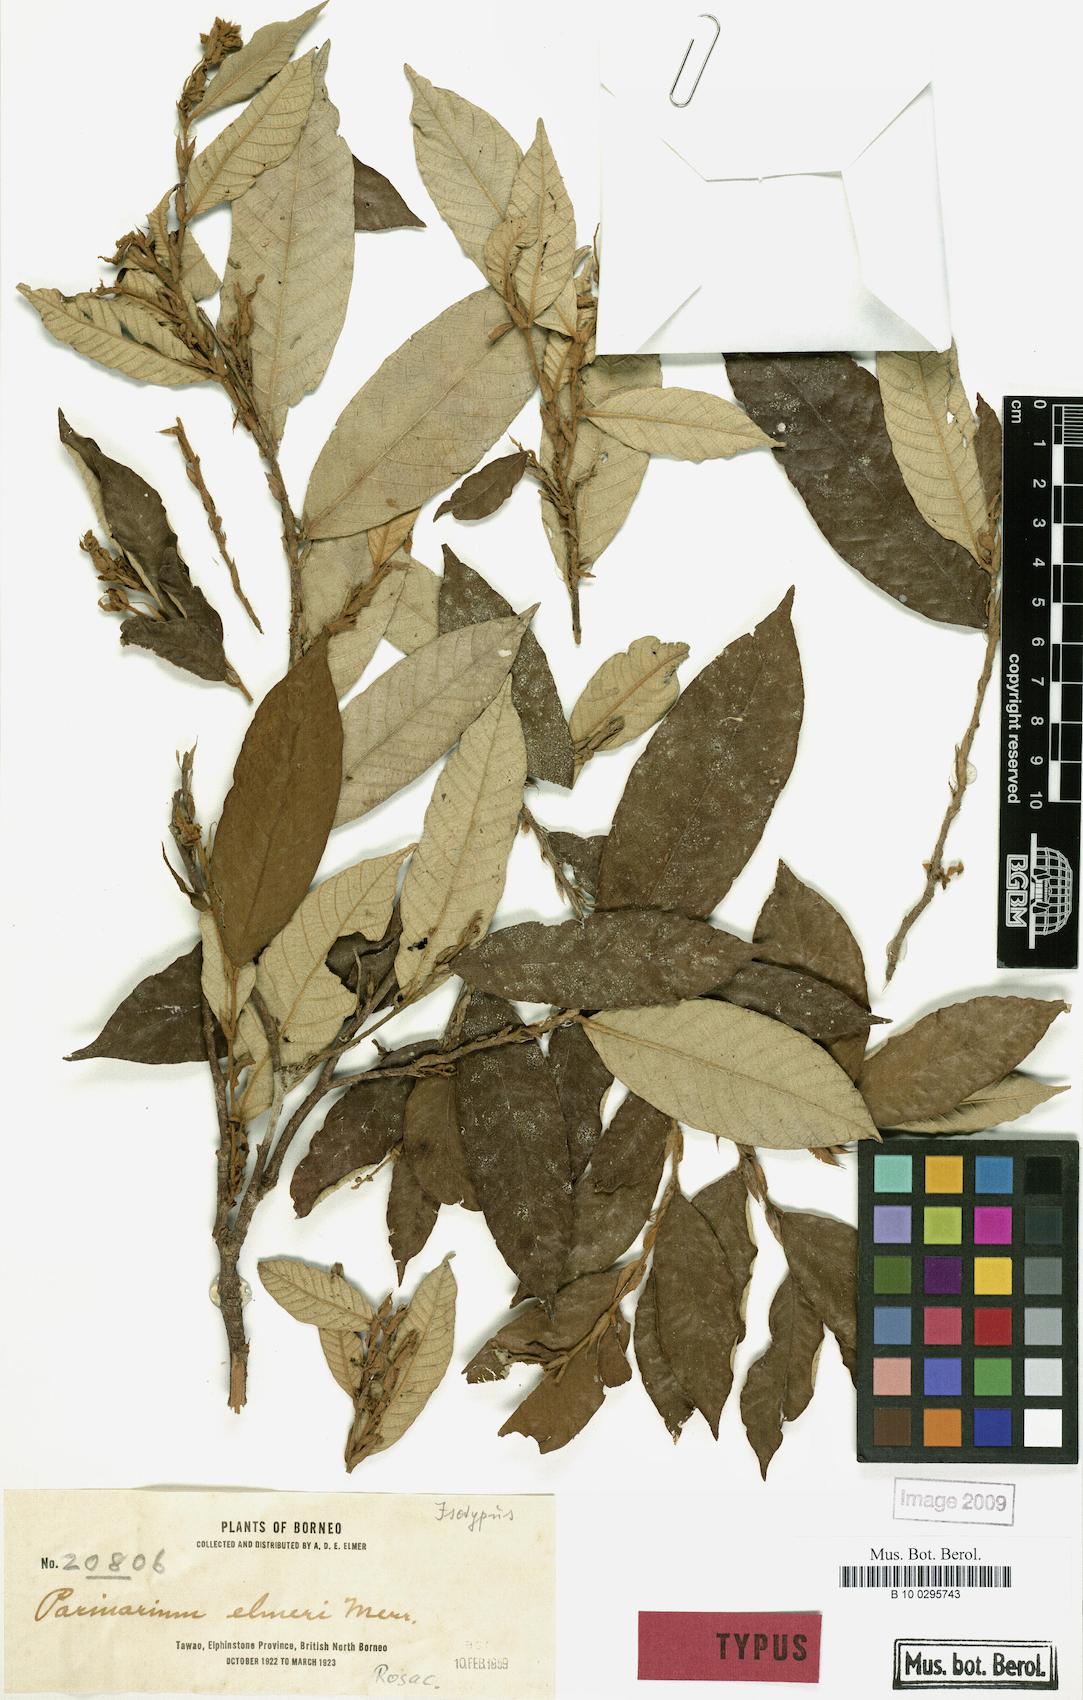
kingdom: Plantae
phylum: Tracheophyta
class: Magnoliopsida
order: Malpighiales
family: Chrysobalanaceae
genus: Parinari
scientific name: Parinari elmeri
